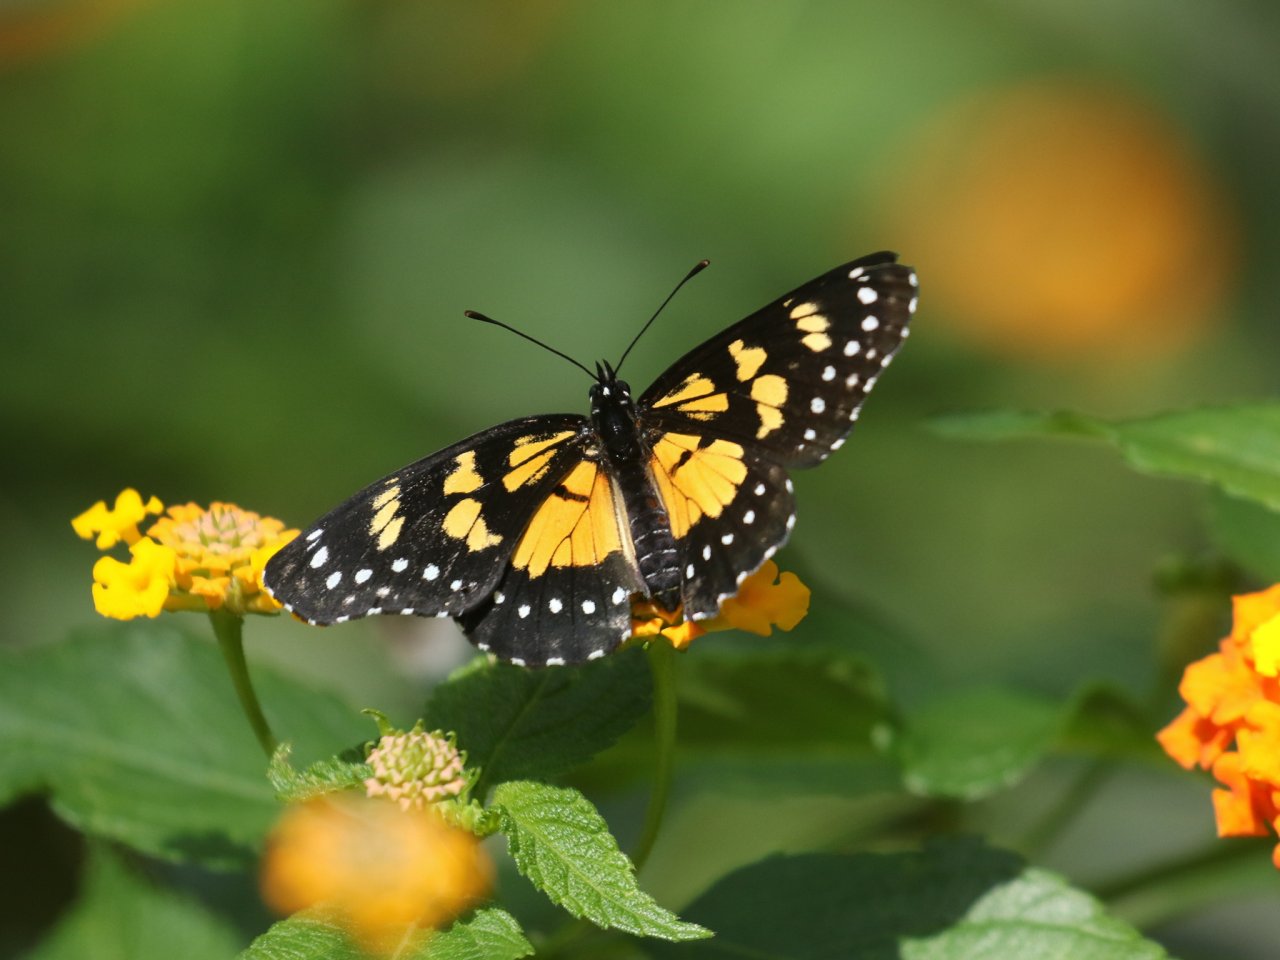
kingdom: Animalia
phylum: Arthropoda
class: Insecta
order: Lepidoptera
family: Nymphalidae
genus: Chlosyne
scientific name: Chlosyne narva
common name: Narva Checkerspot
